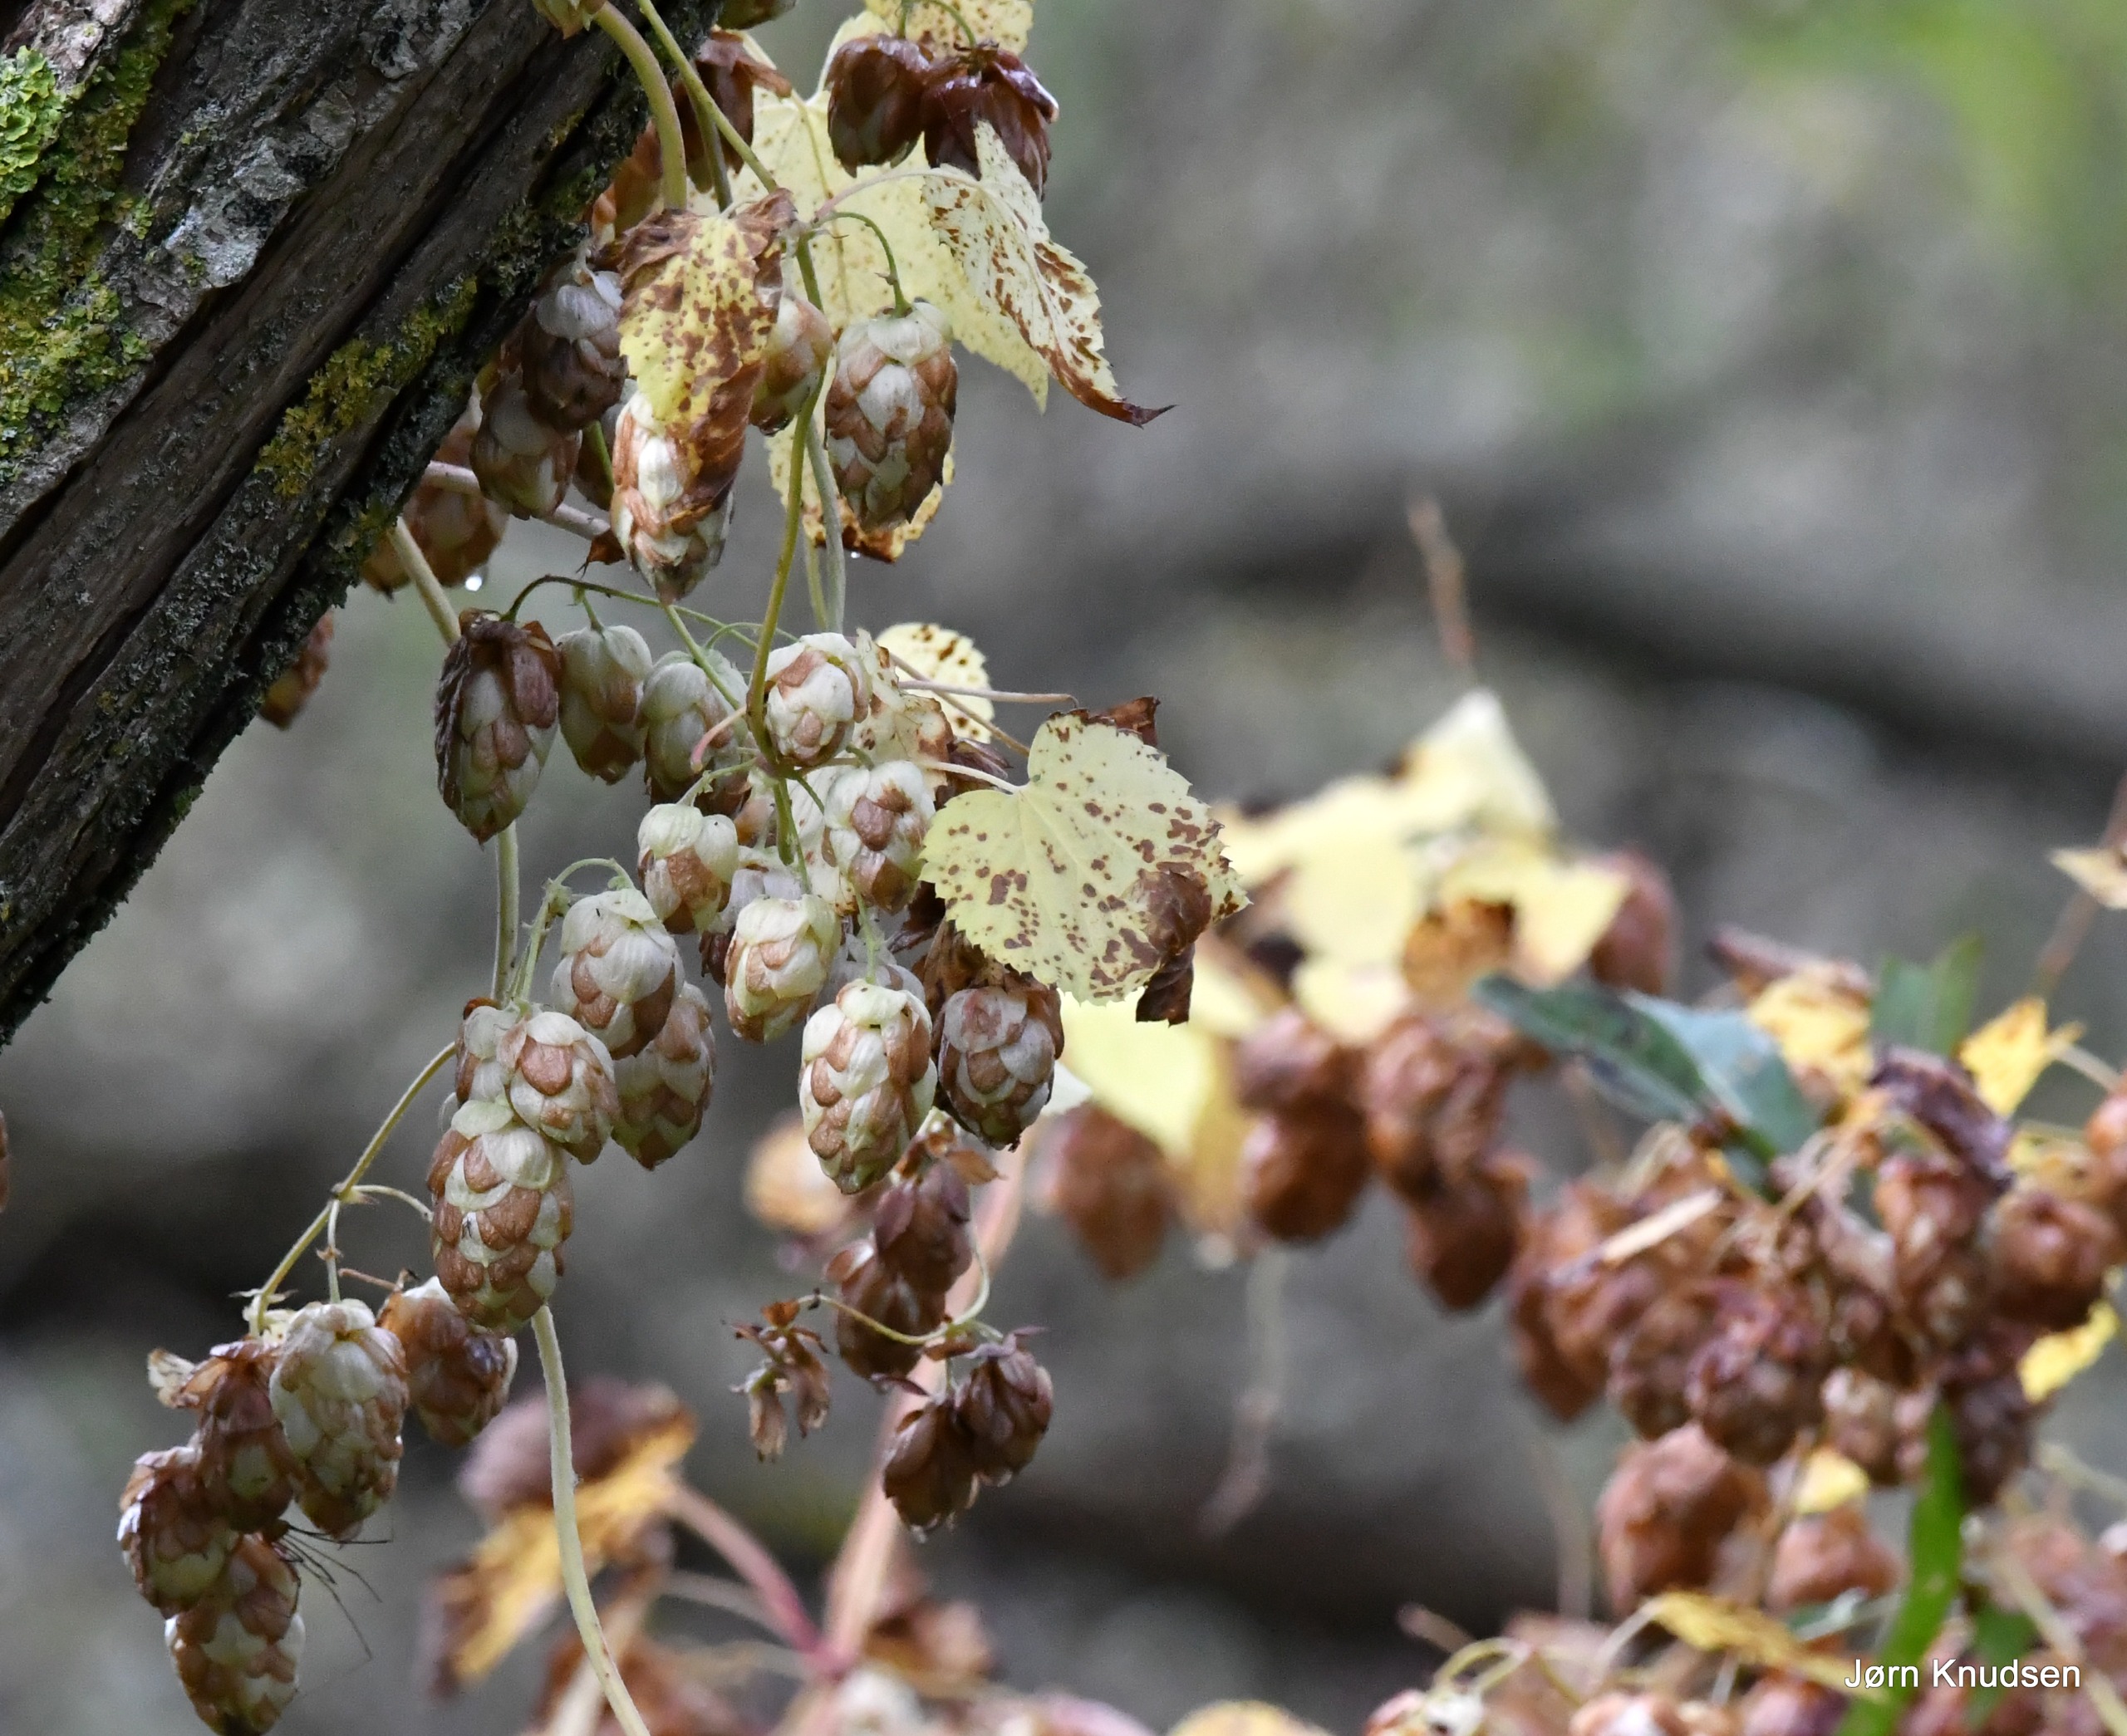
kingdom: Plantae
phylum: Tracheophyta
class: Magnoliopsida
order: Rosales
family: Cannabaceae
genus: Humulus
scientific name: Humulus lupulus
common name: Humle
